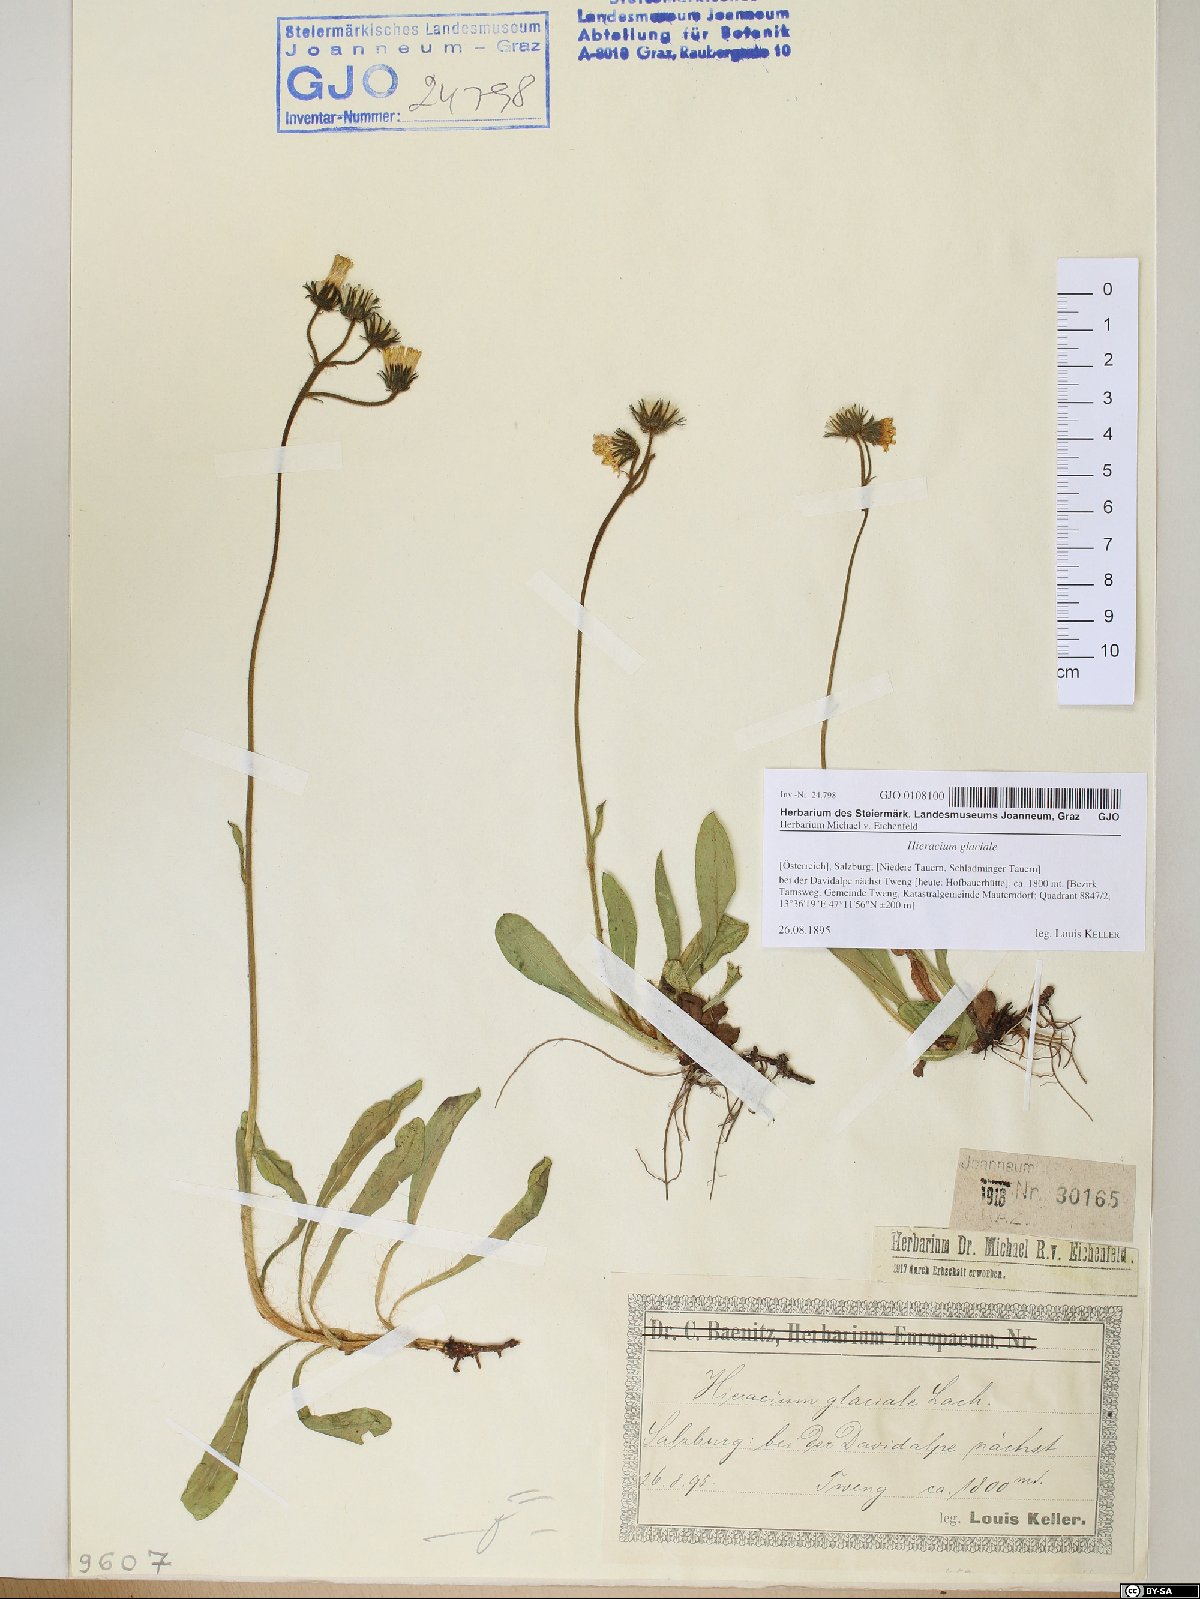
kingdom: Plantae
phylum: Tracheophyta
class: Magnoliopsida
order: Asterales
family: Asteraceae
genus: Pilosella
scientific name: Pilosella glacialis
